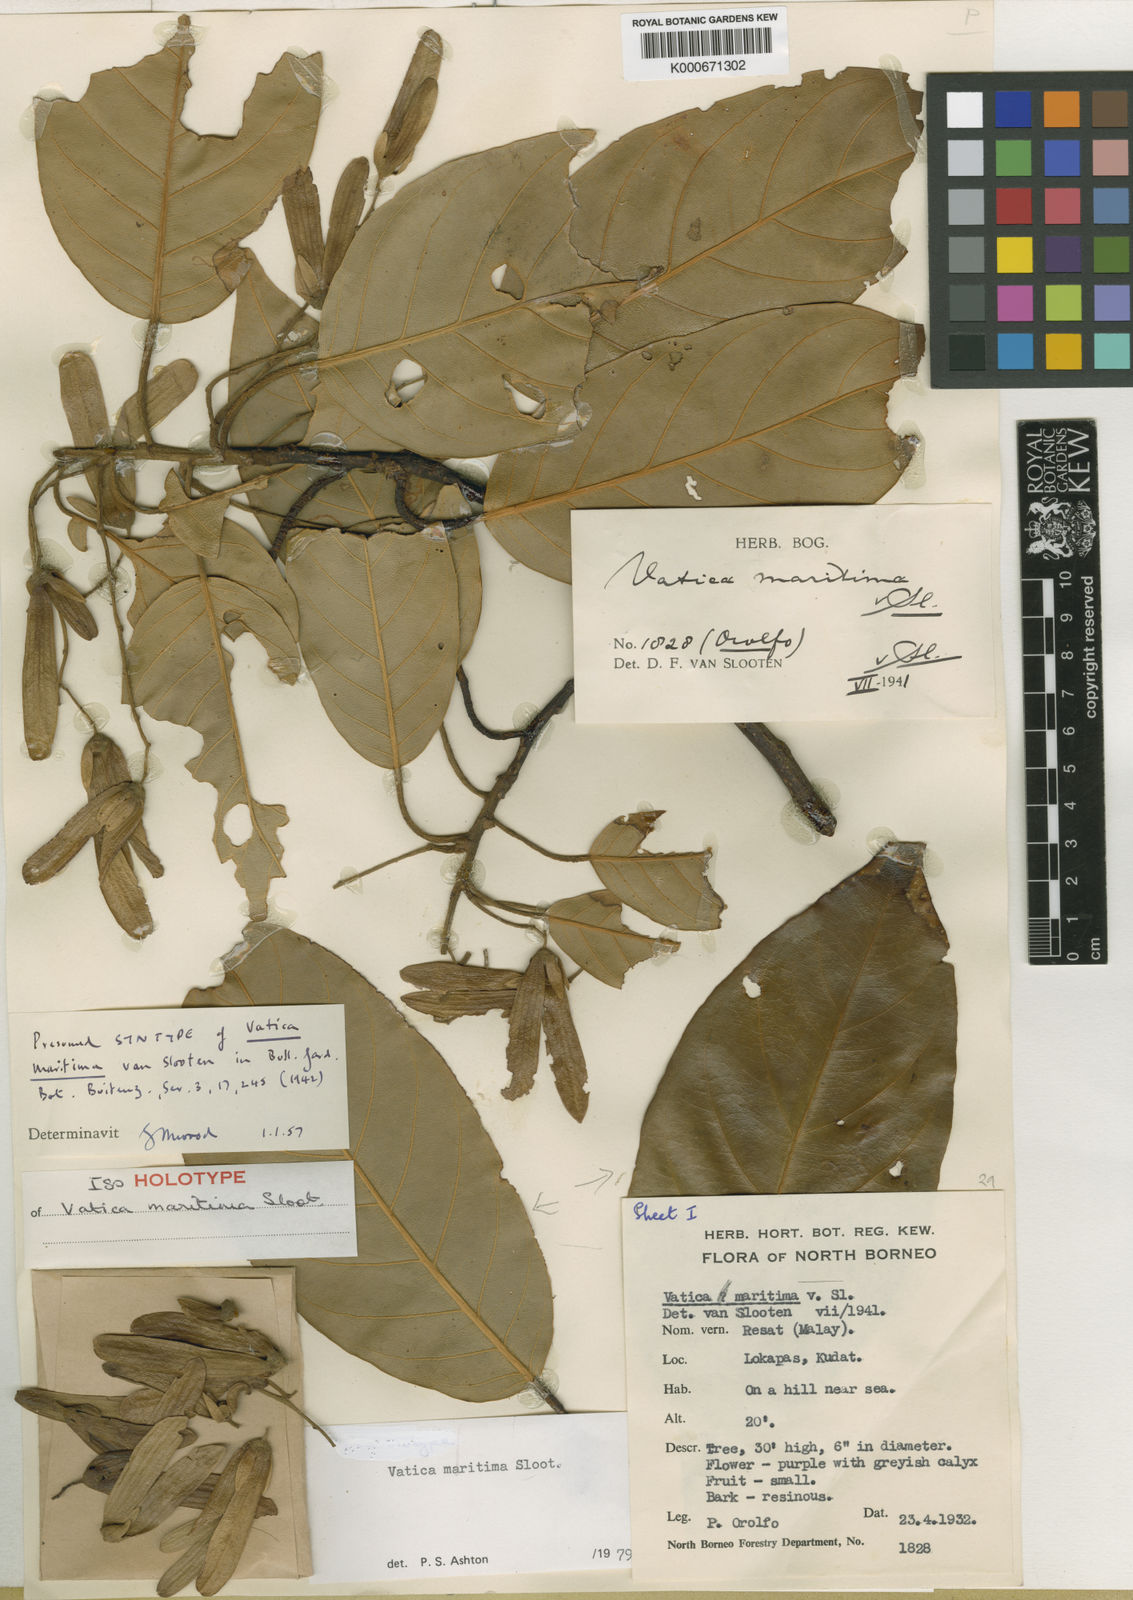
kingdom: Plantae
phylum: Tracheophyta
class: Magnoliopsida
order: Malvales
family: Dipterocarpaceae
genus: Vatica
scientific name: Vatica maritima
